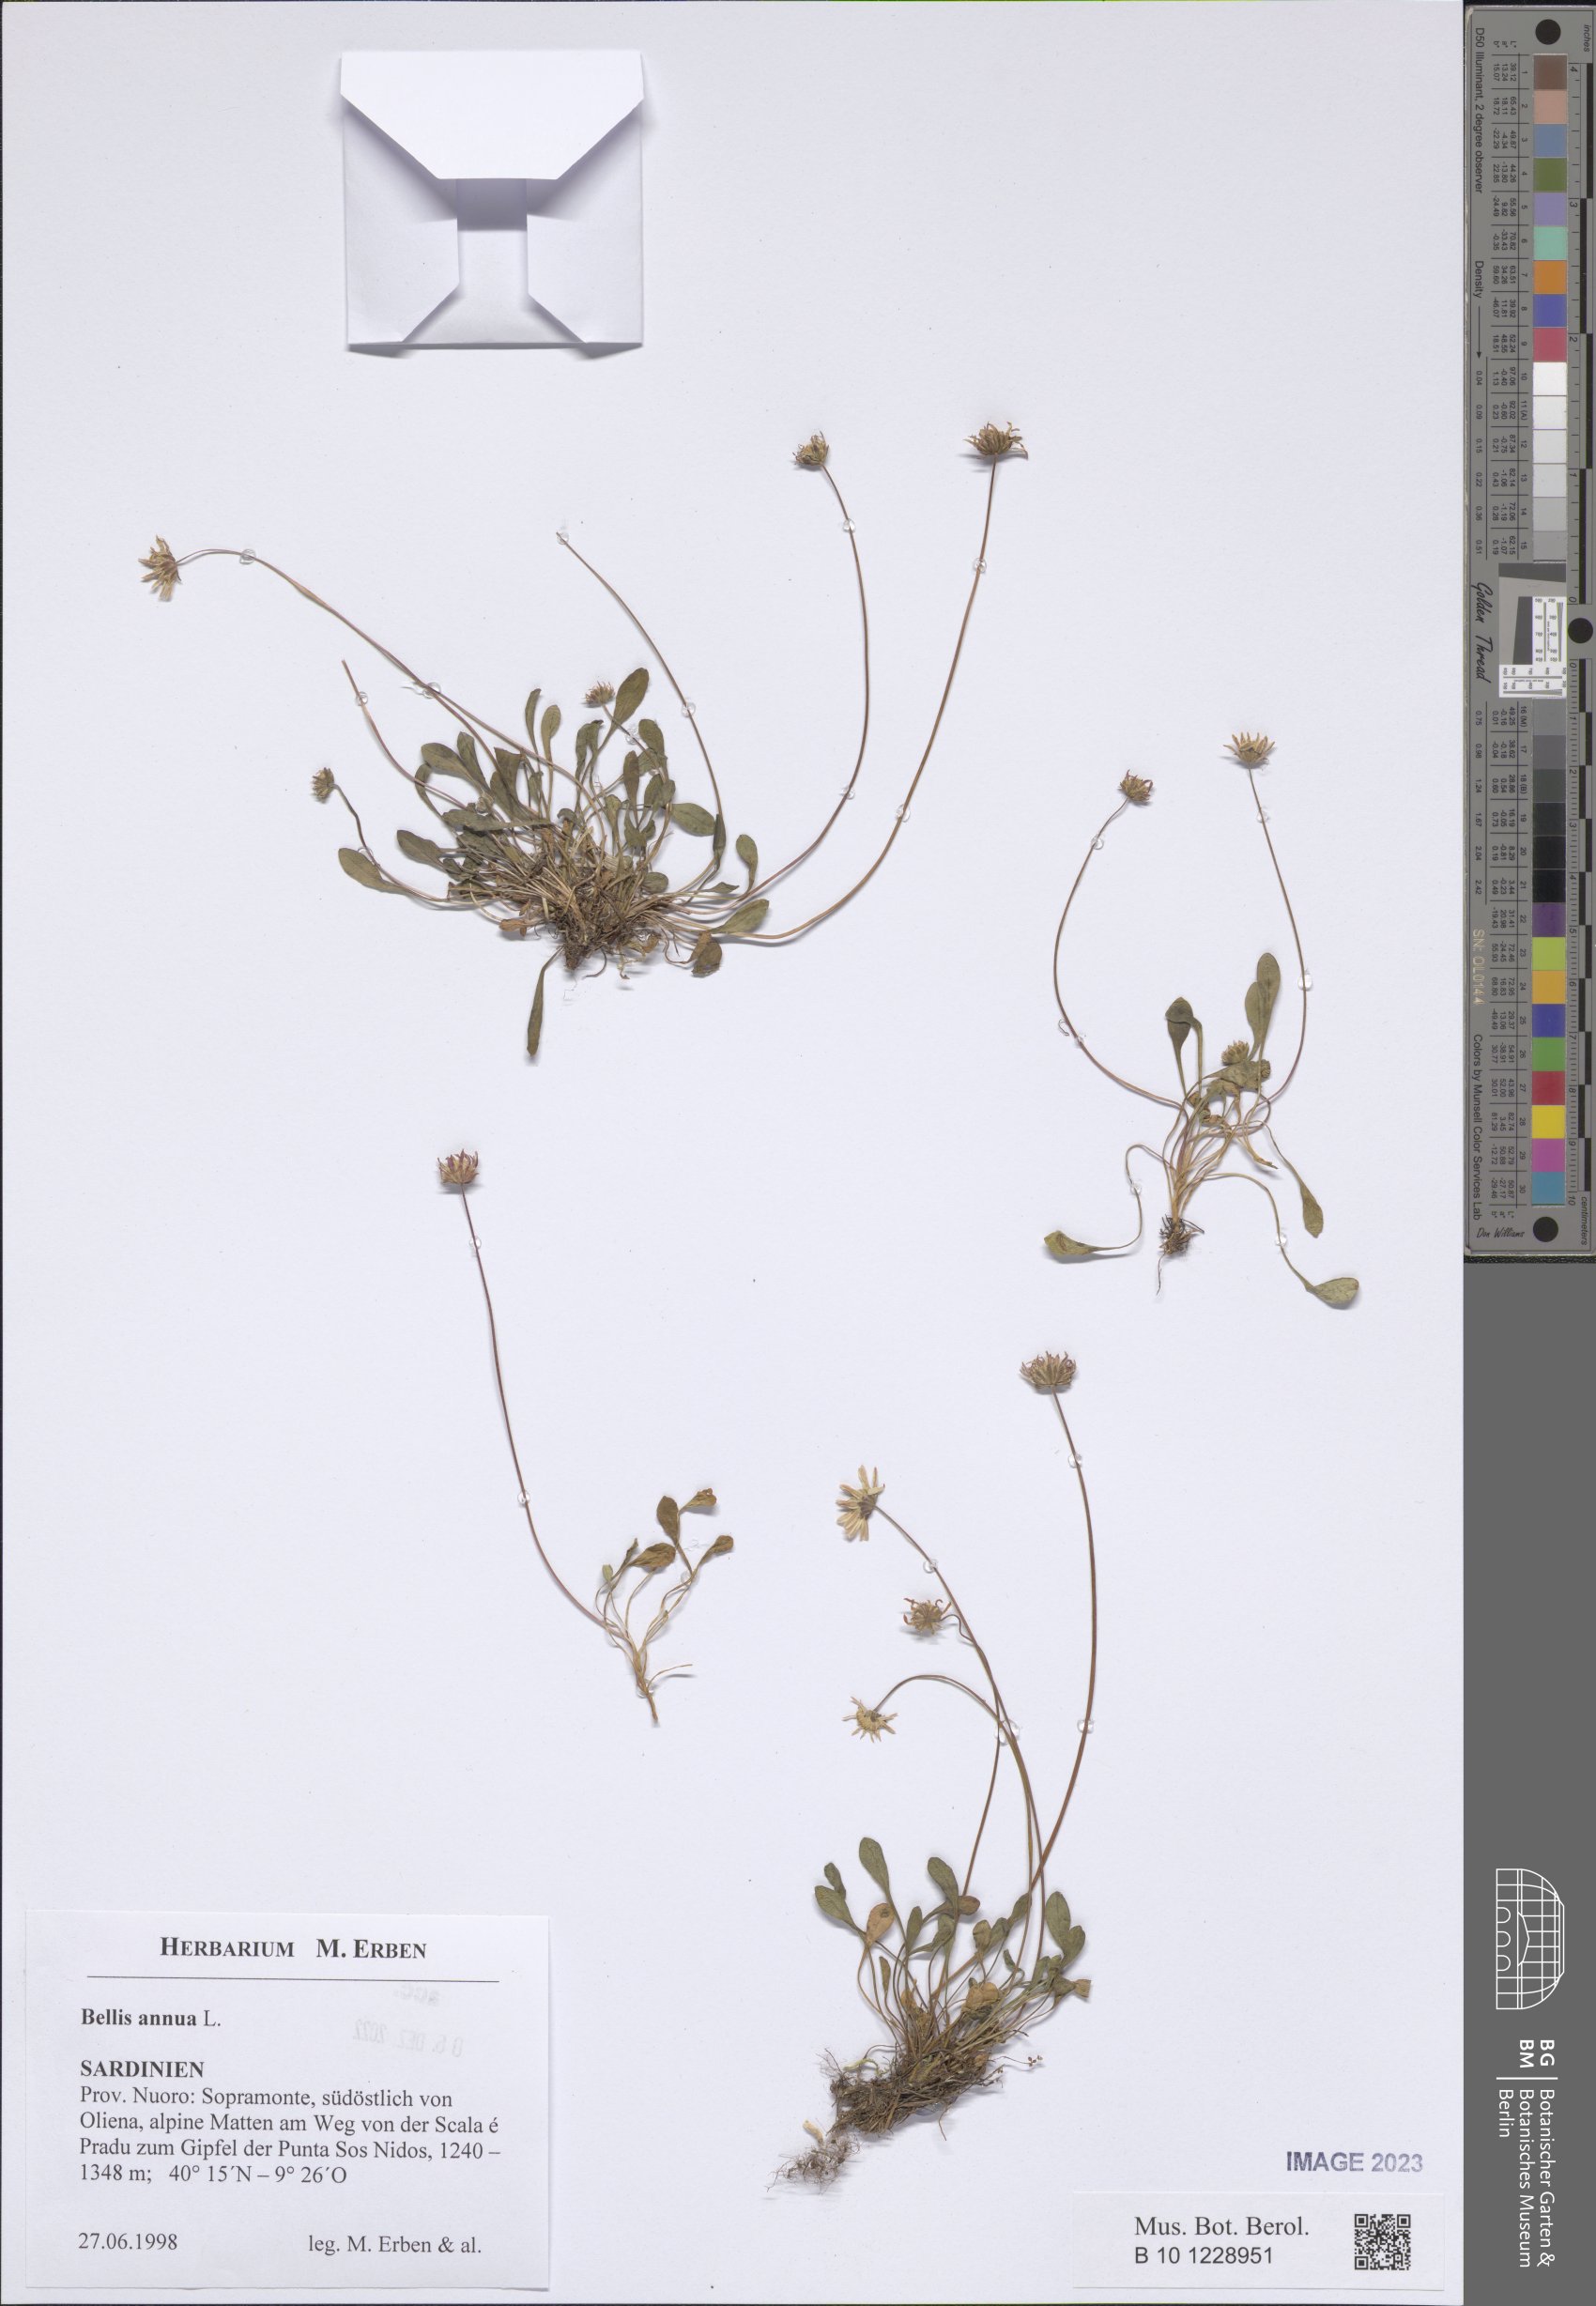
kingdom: Plantae
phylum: Tracheophyta
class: Magnoliopsida
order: Asterales
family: Asteraceae
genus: Bellis
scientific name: Bellis annua
